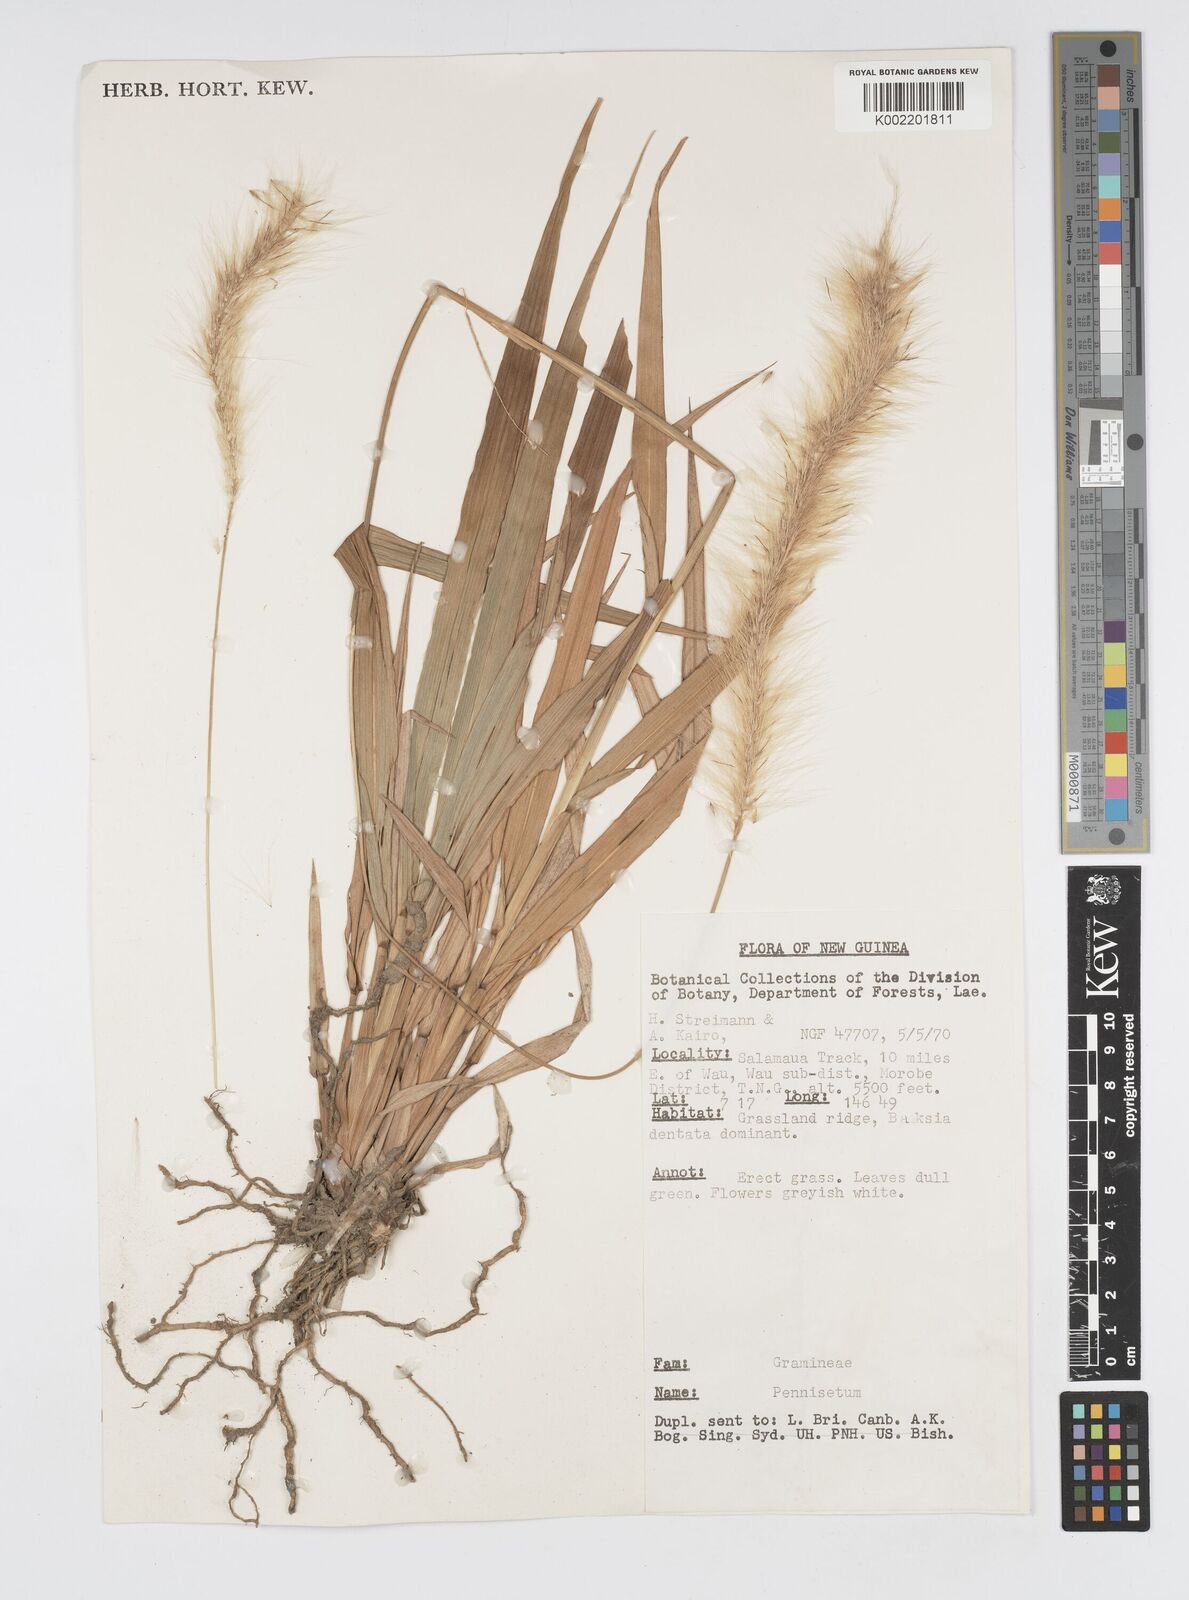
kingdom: Plantae
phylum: Tracheophyta
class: Liliopsida
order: Poales
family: Poaceae
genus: Cenchrus
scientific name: Cenchrus purpureus
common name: Elephant grass
